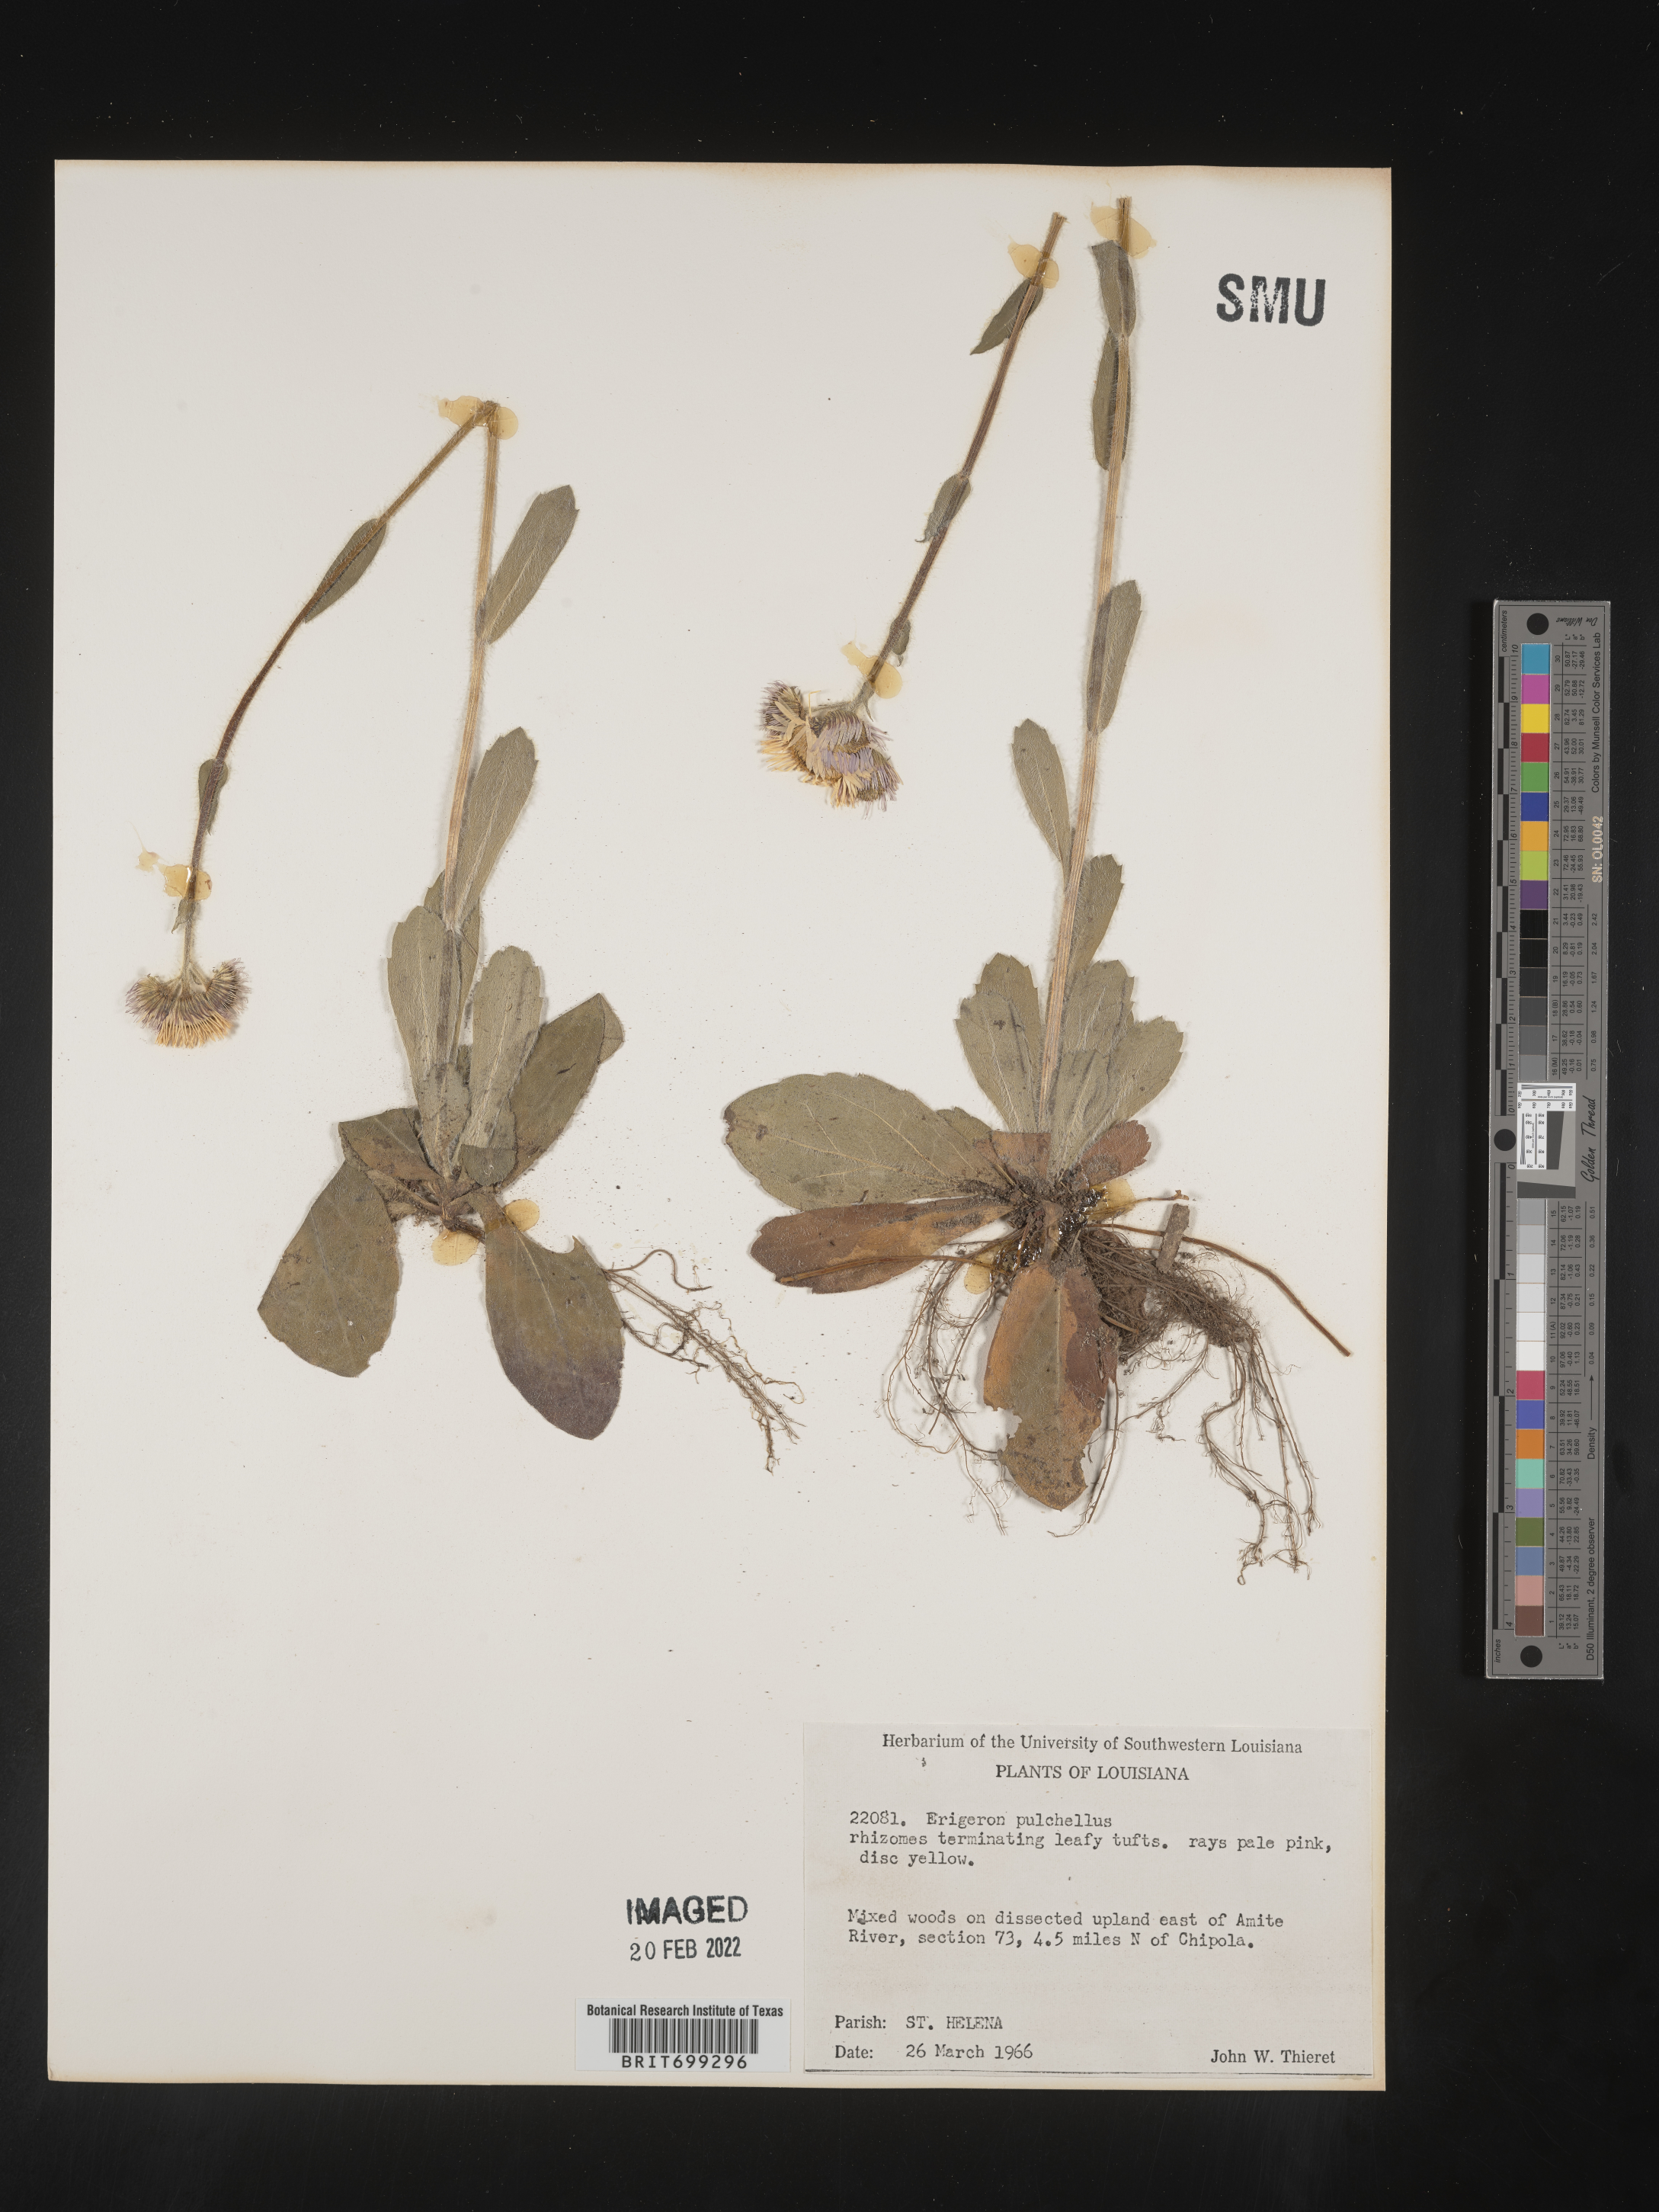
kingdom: Plantae
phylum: Tracheophyta
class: Magnoliopsida
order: Asterales
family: Asteraceae
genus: Erigeron
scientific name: Erigeron pulchellus
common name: Hairy fleabane
